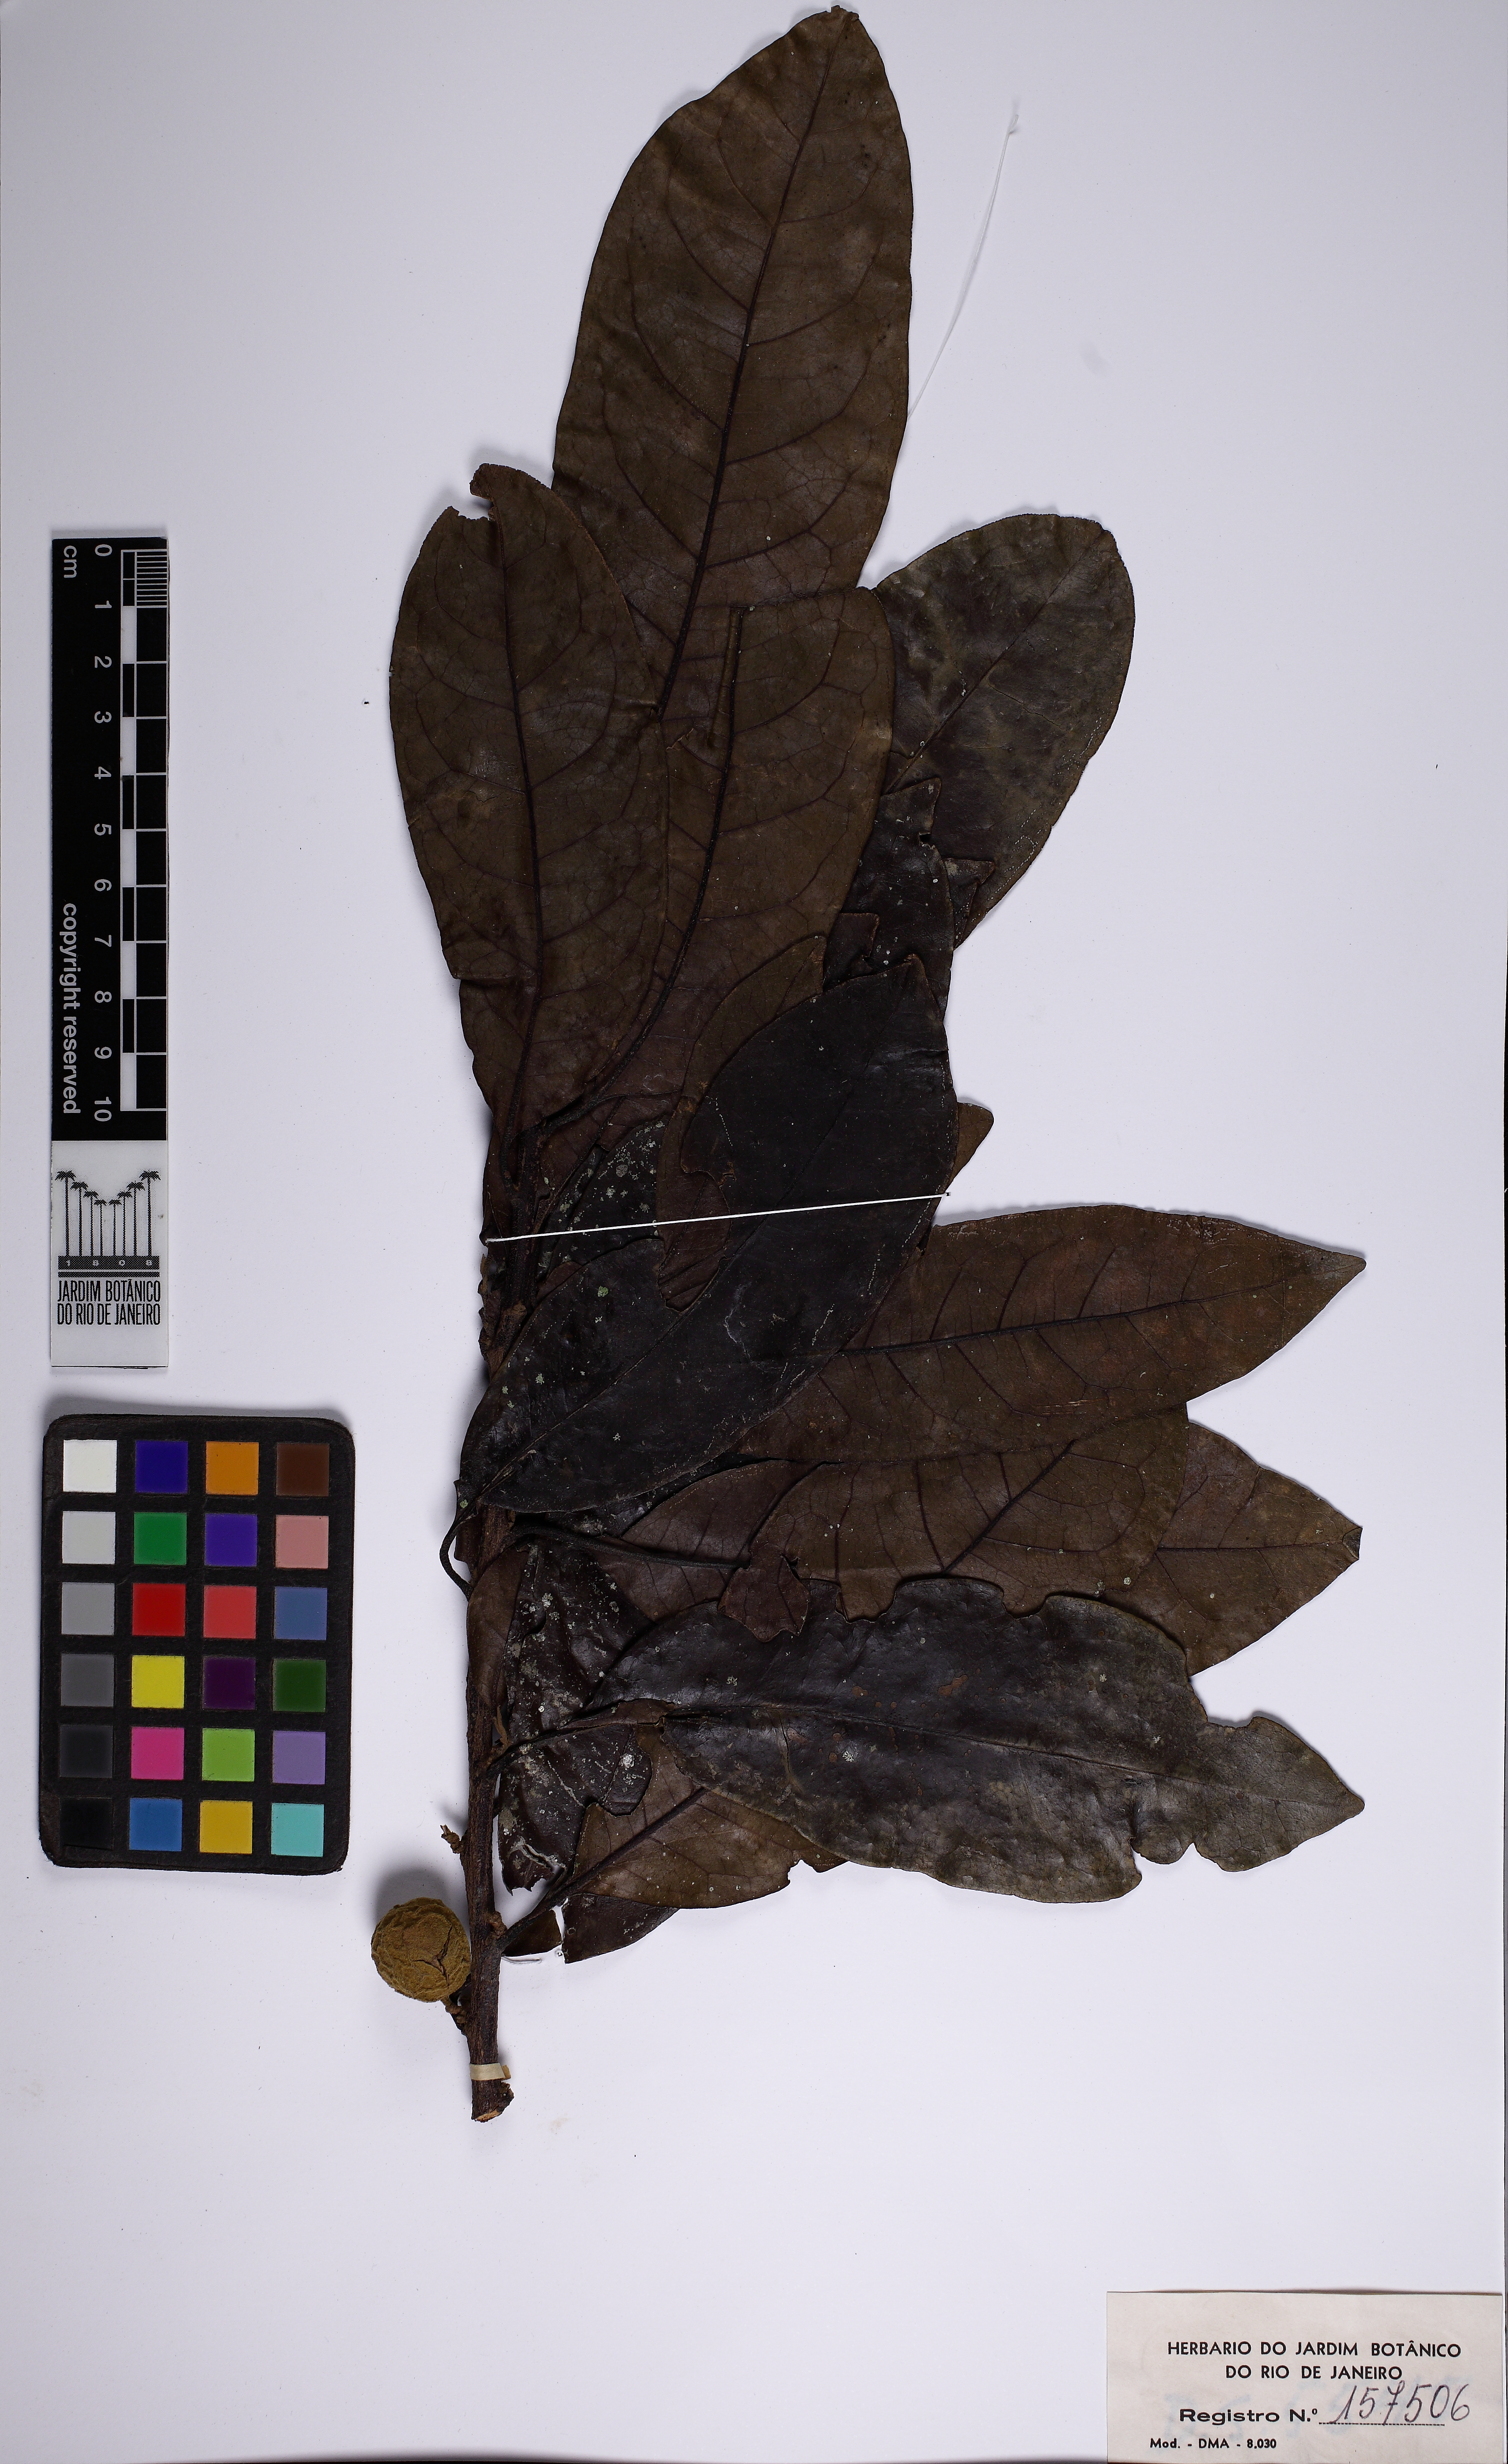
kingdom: Plantae
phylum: Tracheophyta
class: Magnoliopsida
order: Malpighiales
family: Peraceae
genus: Pera
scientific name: Pera furfuracea
